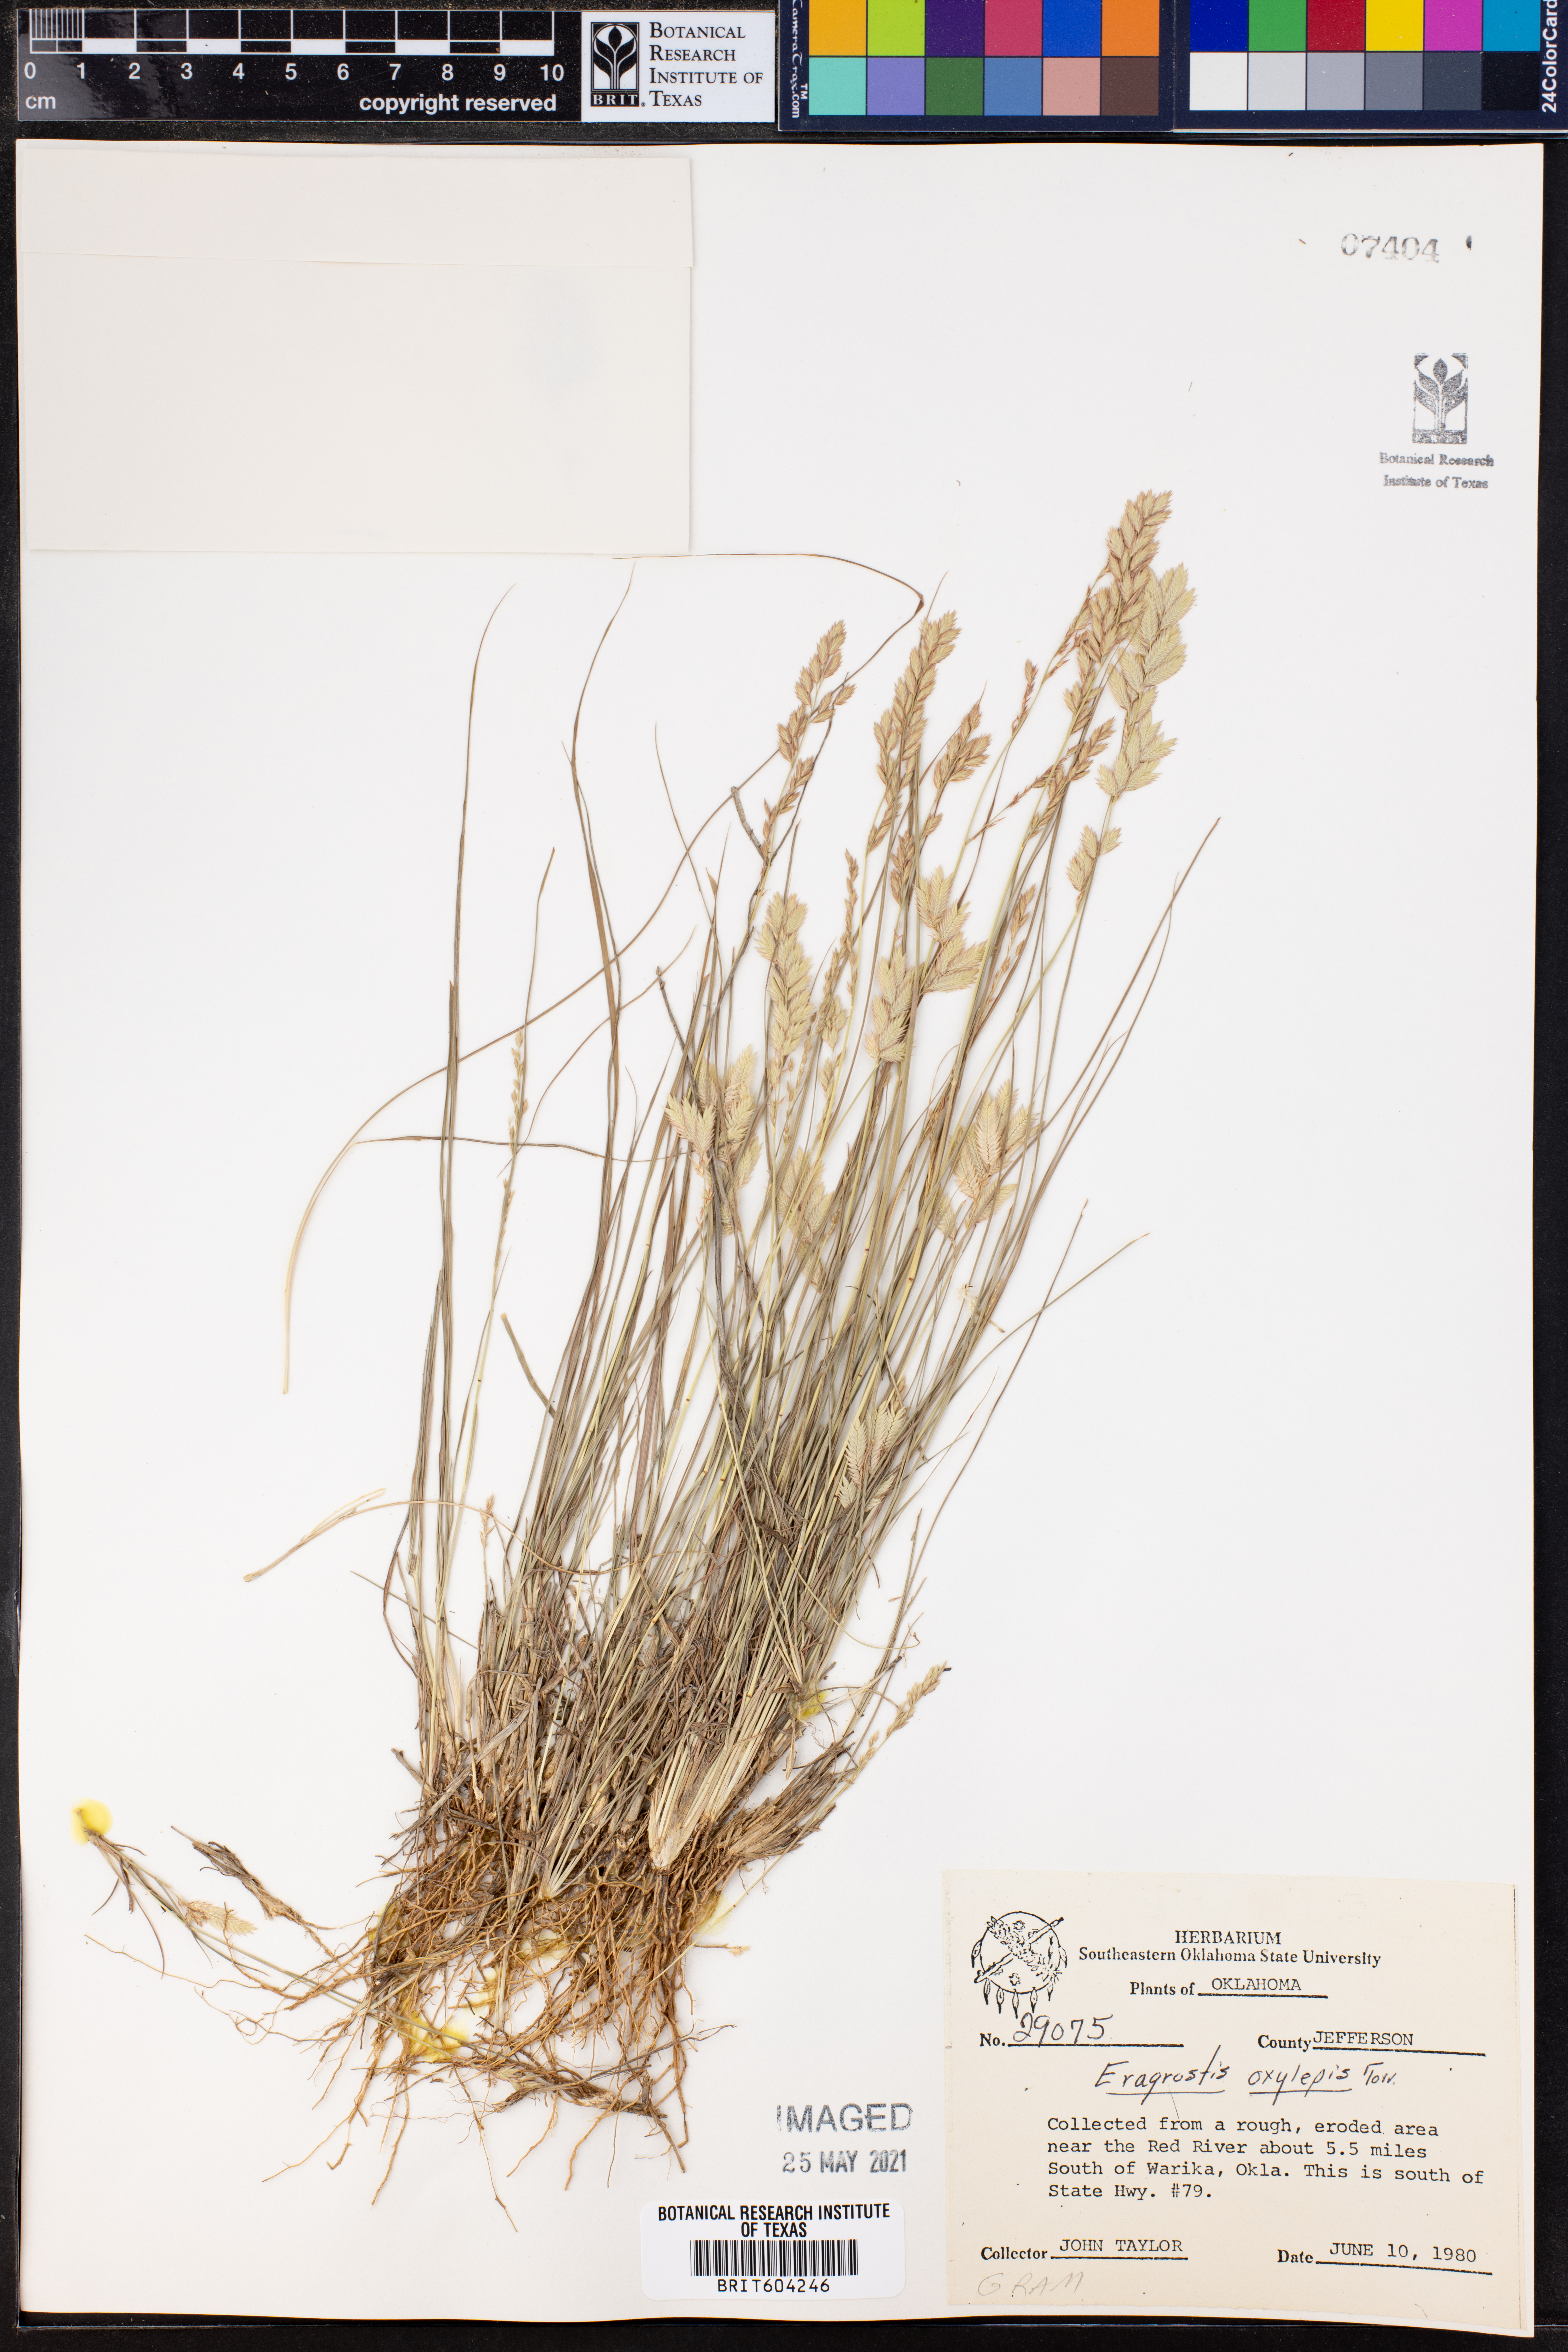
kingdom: Plantae
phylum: Tracheophyta
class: Liliopsida
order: Poales
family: Poaceae
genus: Eragrostis
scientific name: Eragrostis secundiflora
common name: Red love grass
